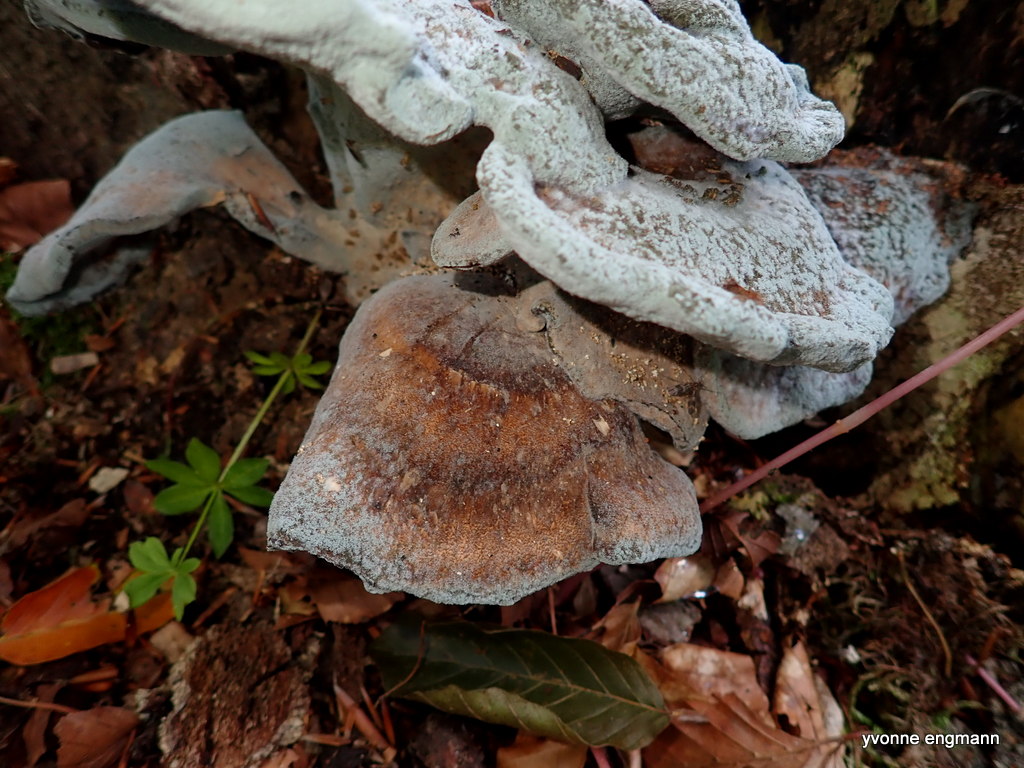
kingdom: Fungi
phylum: Basidiomycota
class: Agaricomycetes
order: Polyporales
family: Meripilaceae
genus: Meripilus
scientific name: Meripilus giganteus
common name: kæmpeporesvamp
